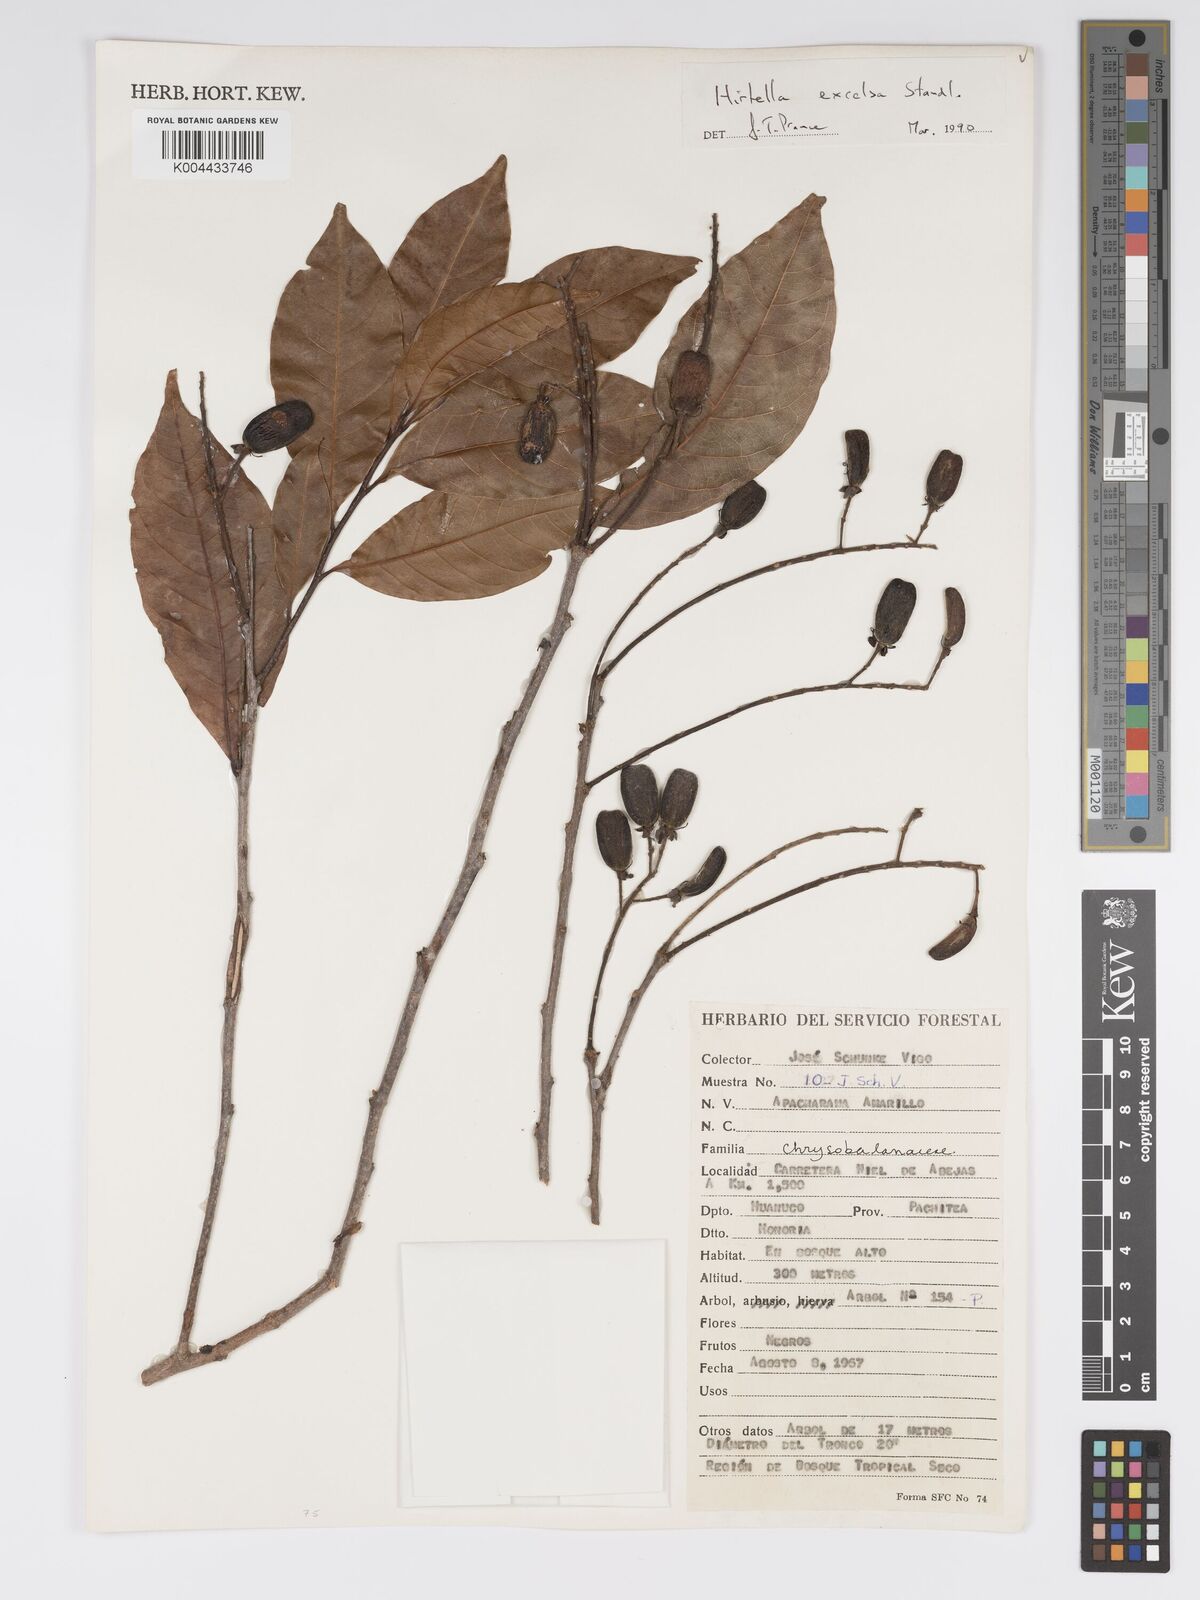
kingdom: Plantae
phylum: Tracheophyta
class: Magnoliopsida
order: Malpighiales
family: Chrysobalanaceae
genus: Hirtella
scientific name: Hirtella excelsa
